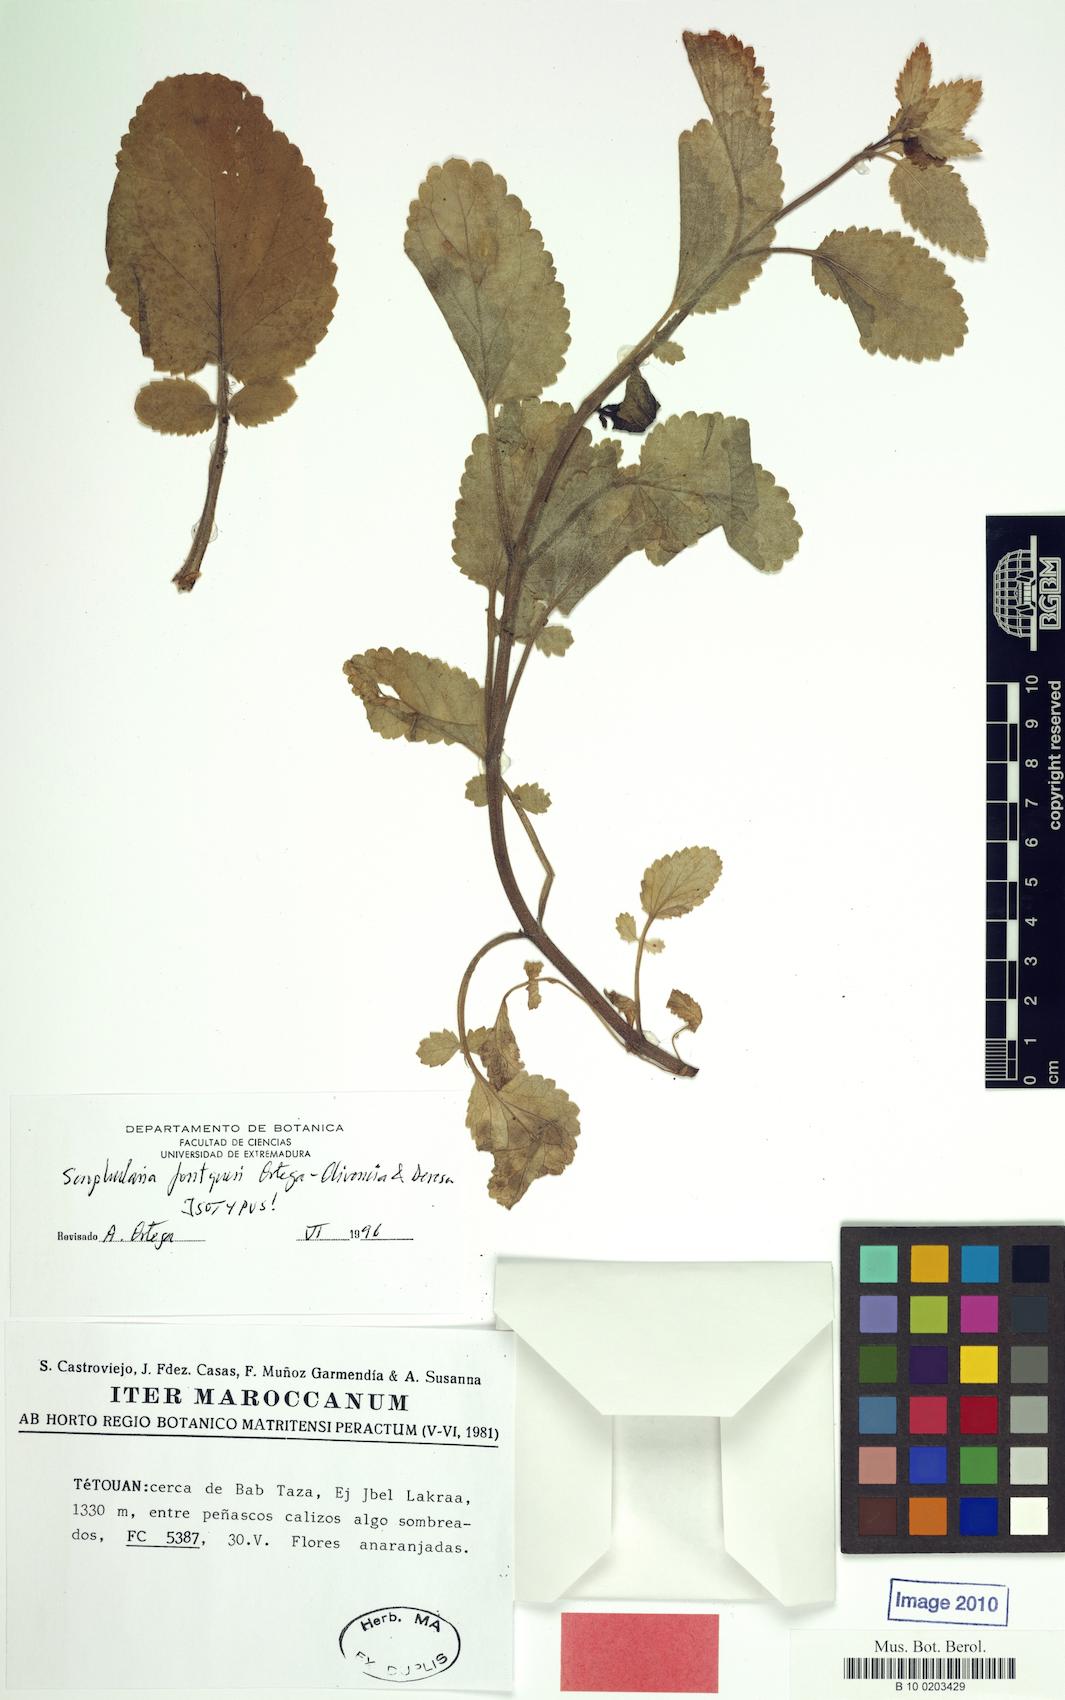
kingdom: Plantae
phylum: Tracheophyta
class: Magnoliopsida
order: Lamiales
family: Scrophulariaceae
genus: Scrophularia
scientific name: Scrophularia fontqueri
